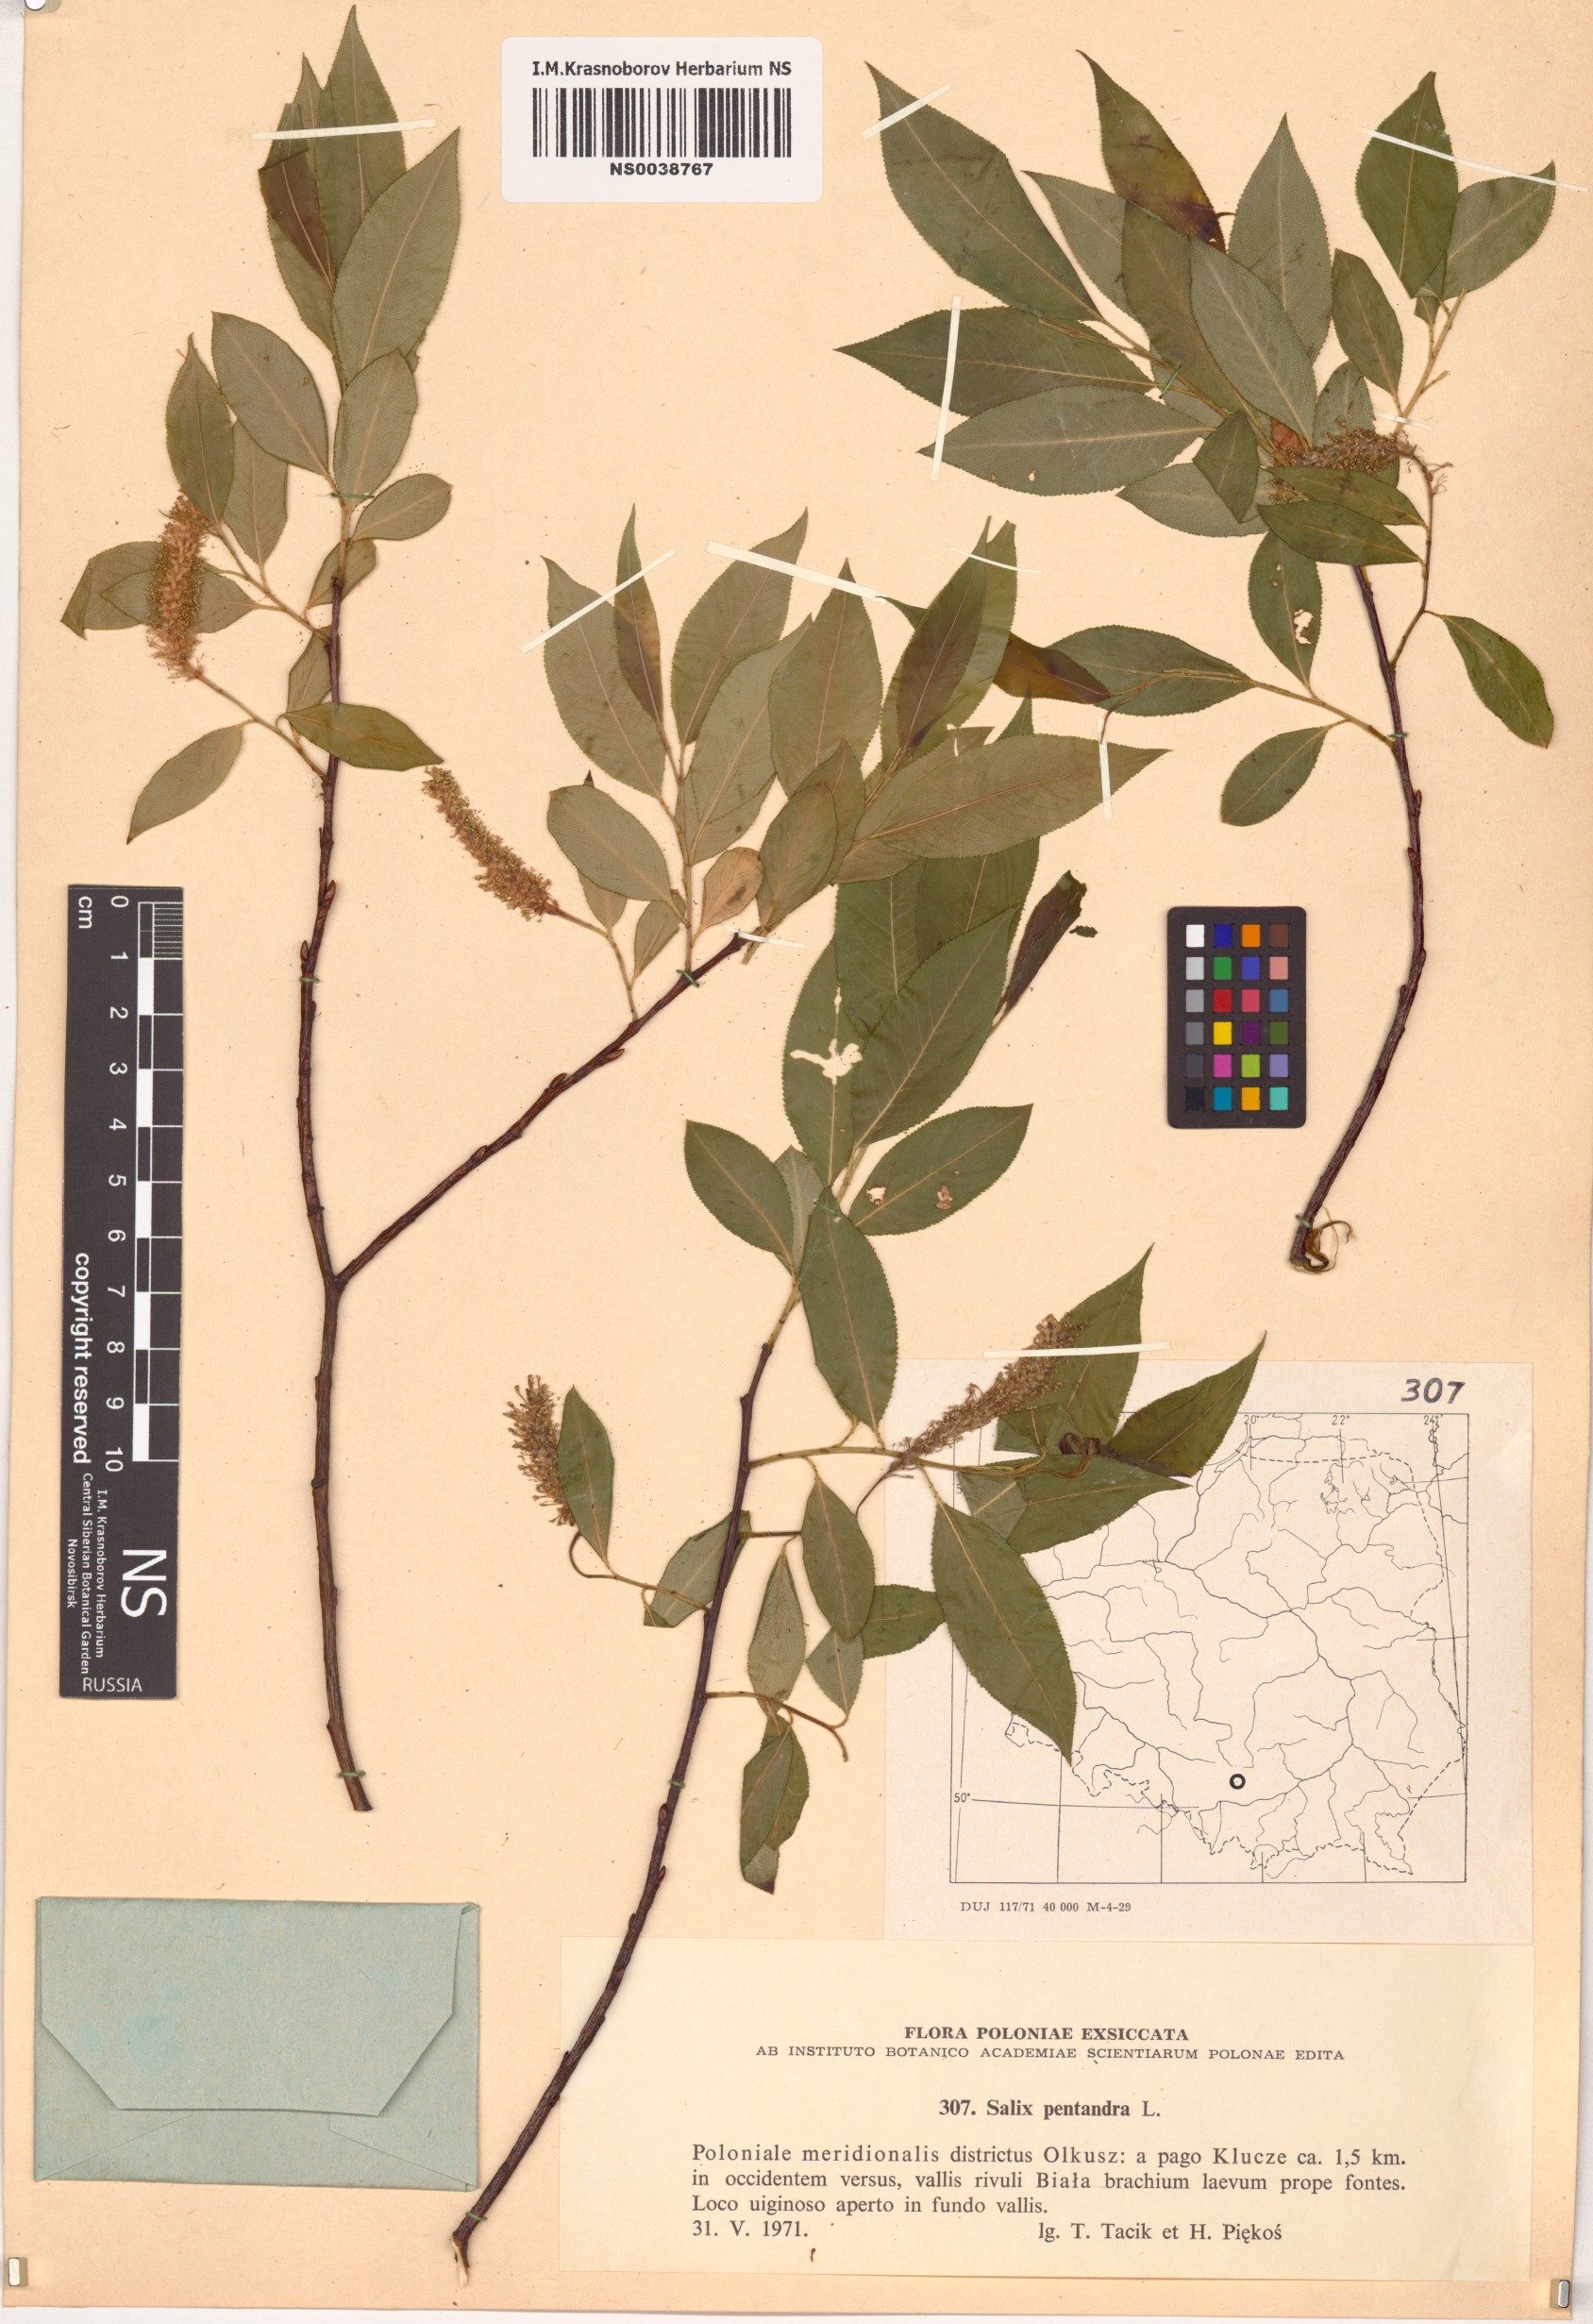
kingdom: Plantae
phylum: Tracheophyta
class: Magnoliopsida
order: Malpighiales
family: Salicaceae
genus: Salix
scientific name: Salix pentandra
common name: Bay willow
